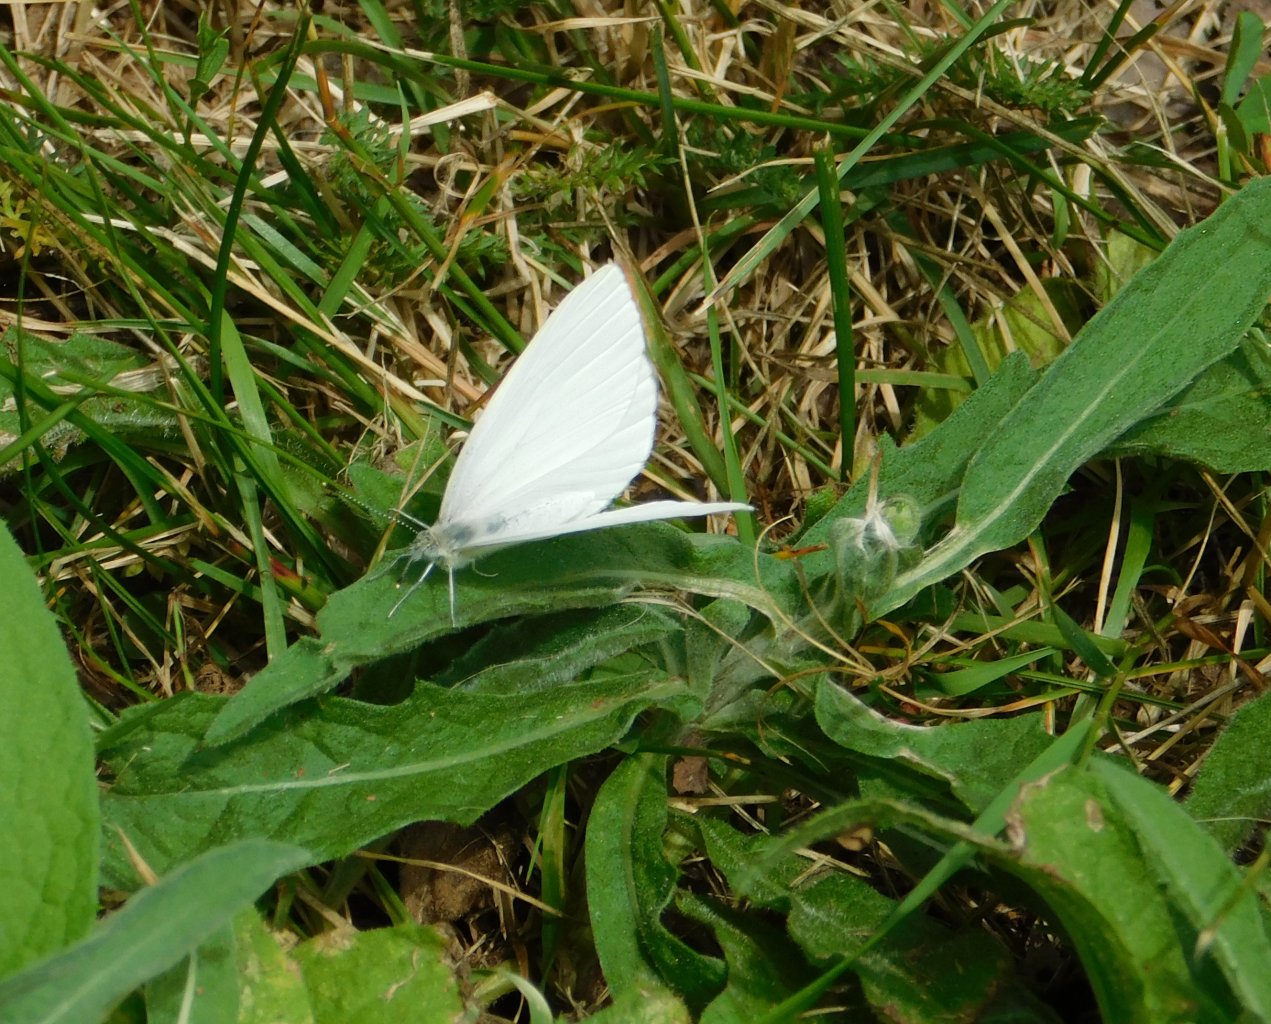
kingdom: Animalia
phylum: Arthropoda
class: Insecta
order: Lepidoptera
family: Pieridae
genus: Pieris
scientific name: Pieris oleracea
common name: Mustard White
